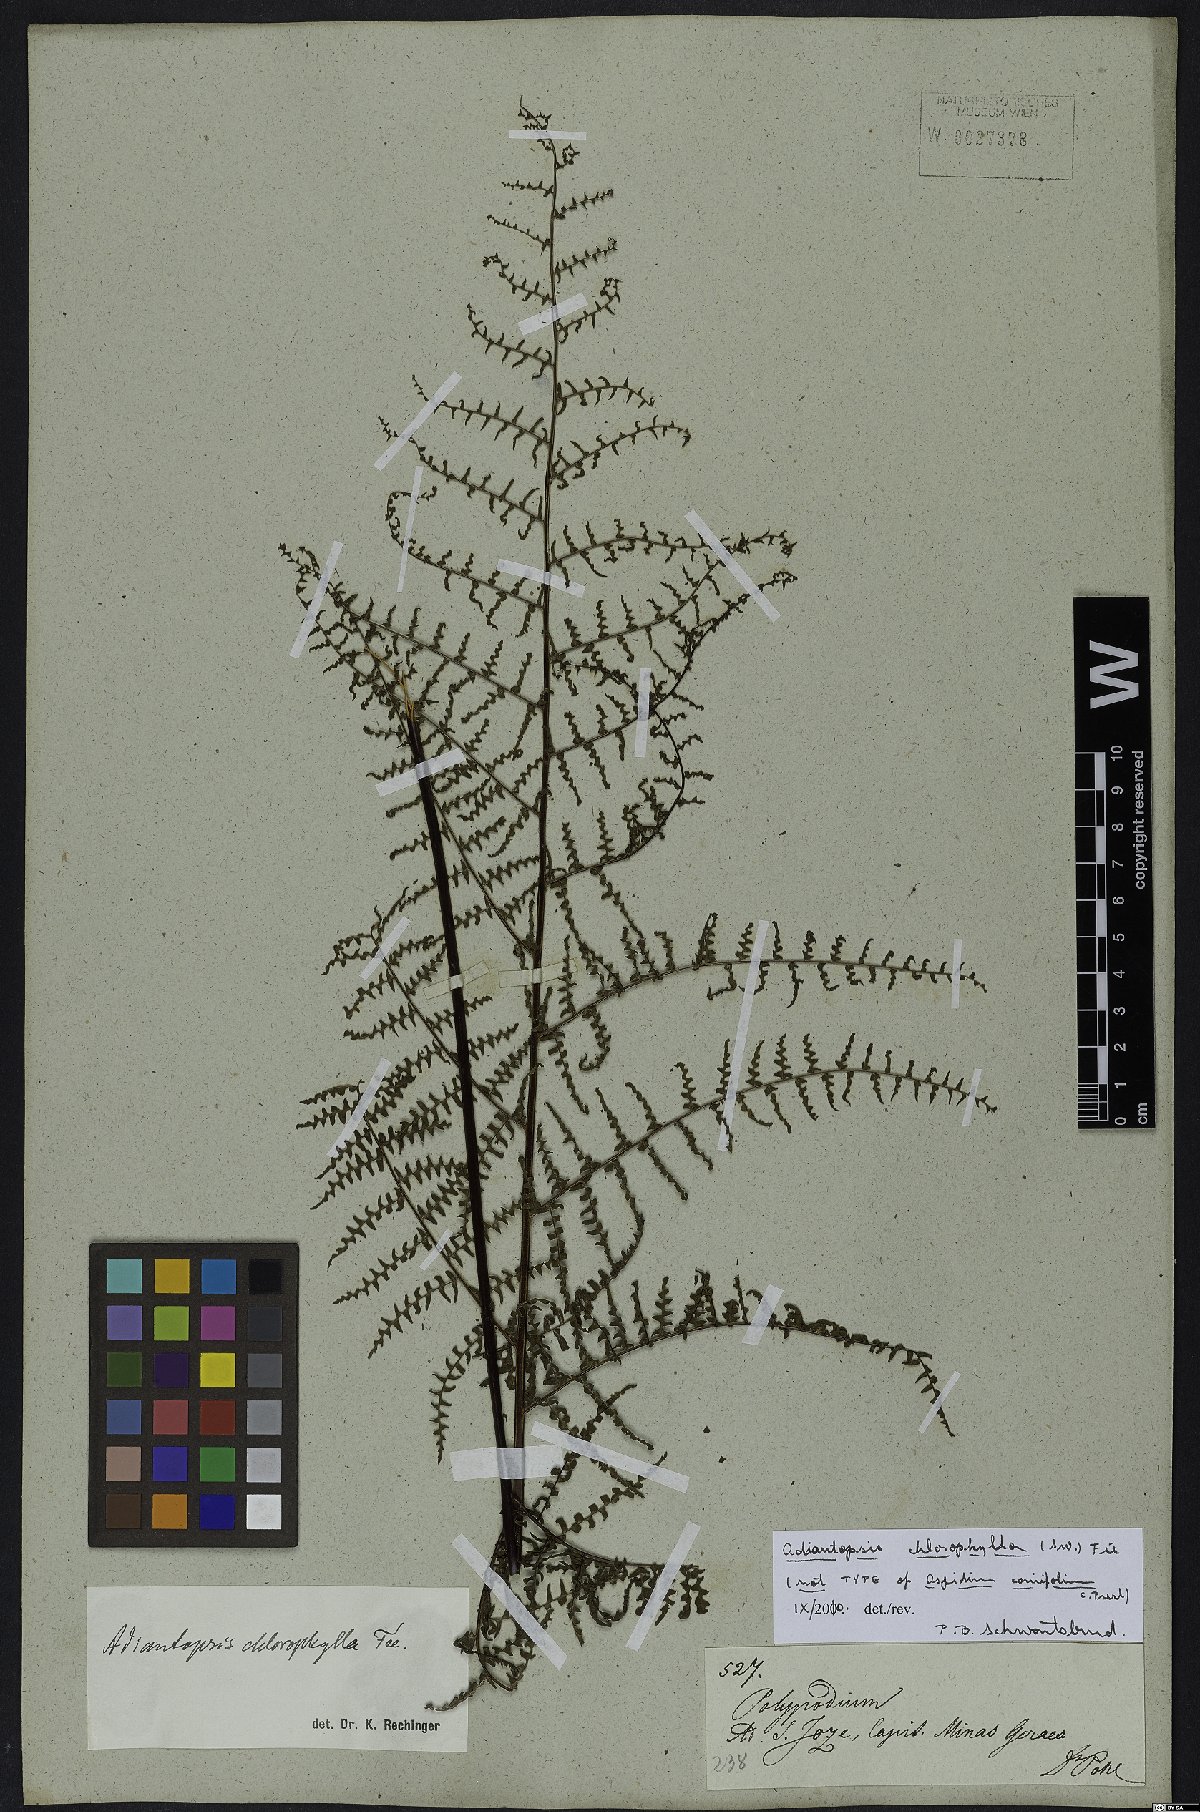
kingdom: Plantae
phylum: Tracheophyta
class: Polypodiopsida
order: Polypodiales
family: Pteridaceae
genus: Adiantopsis
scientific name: Adiantopsis chlorophylla
